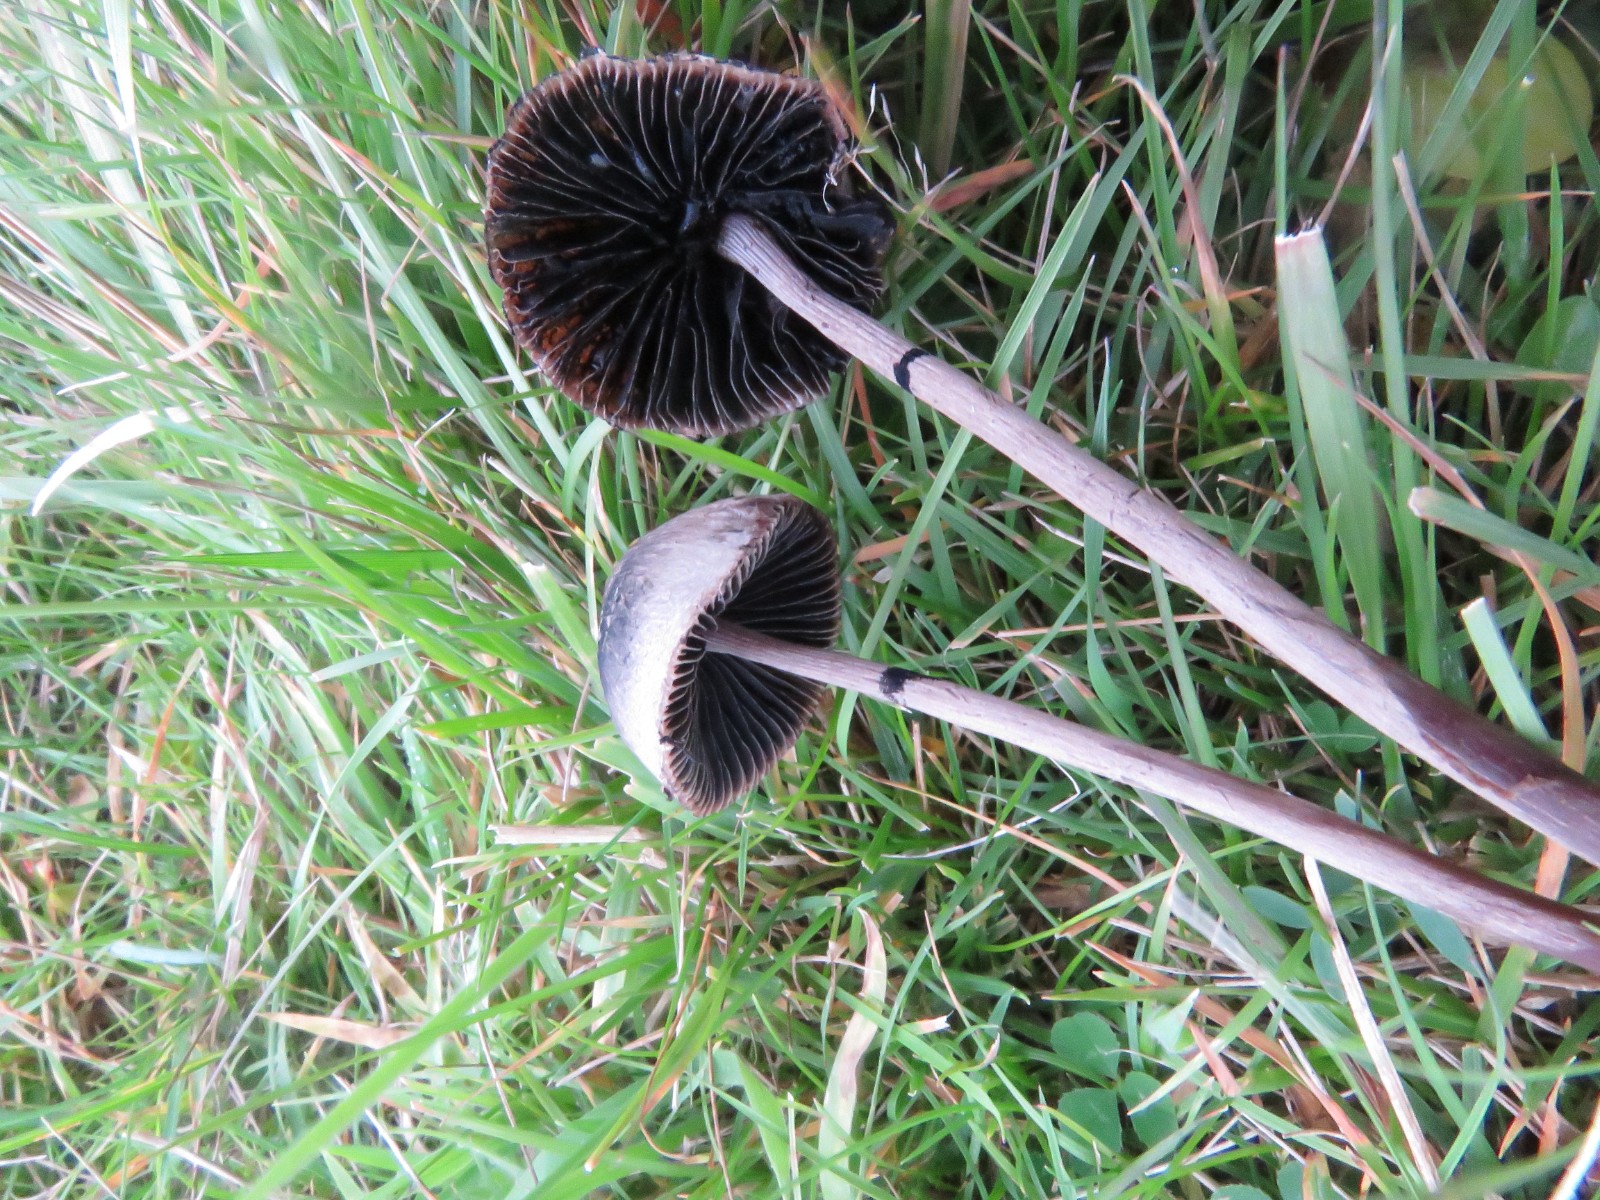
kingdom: Fungi
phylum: Basidiomycota
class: Agaricomycetes
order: Agaricales
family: Bolbitiaceae
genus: Panaeolus
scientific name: Panaeolus
